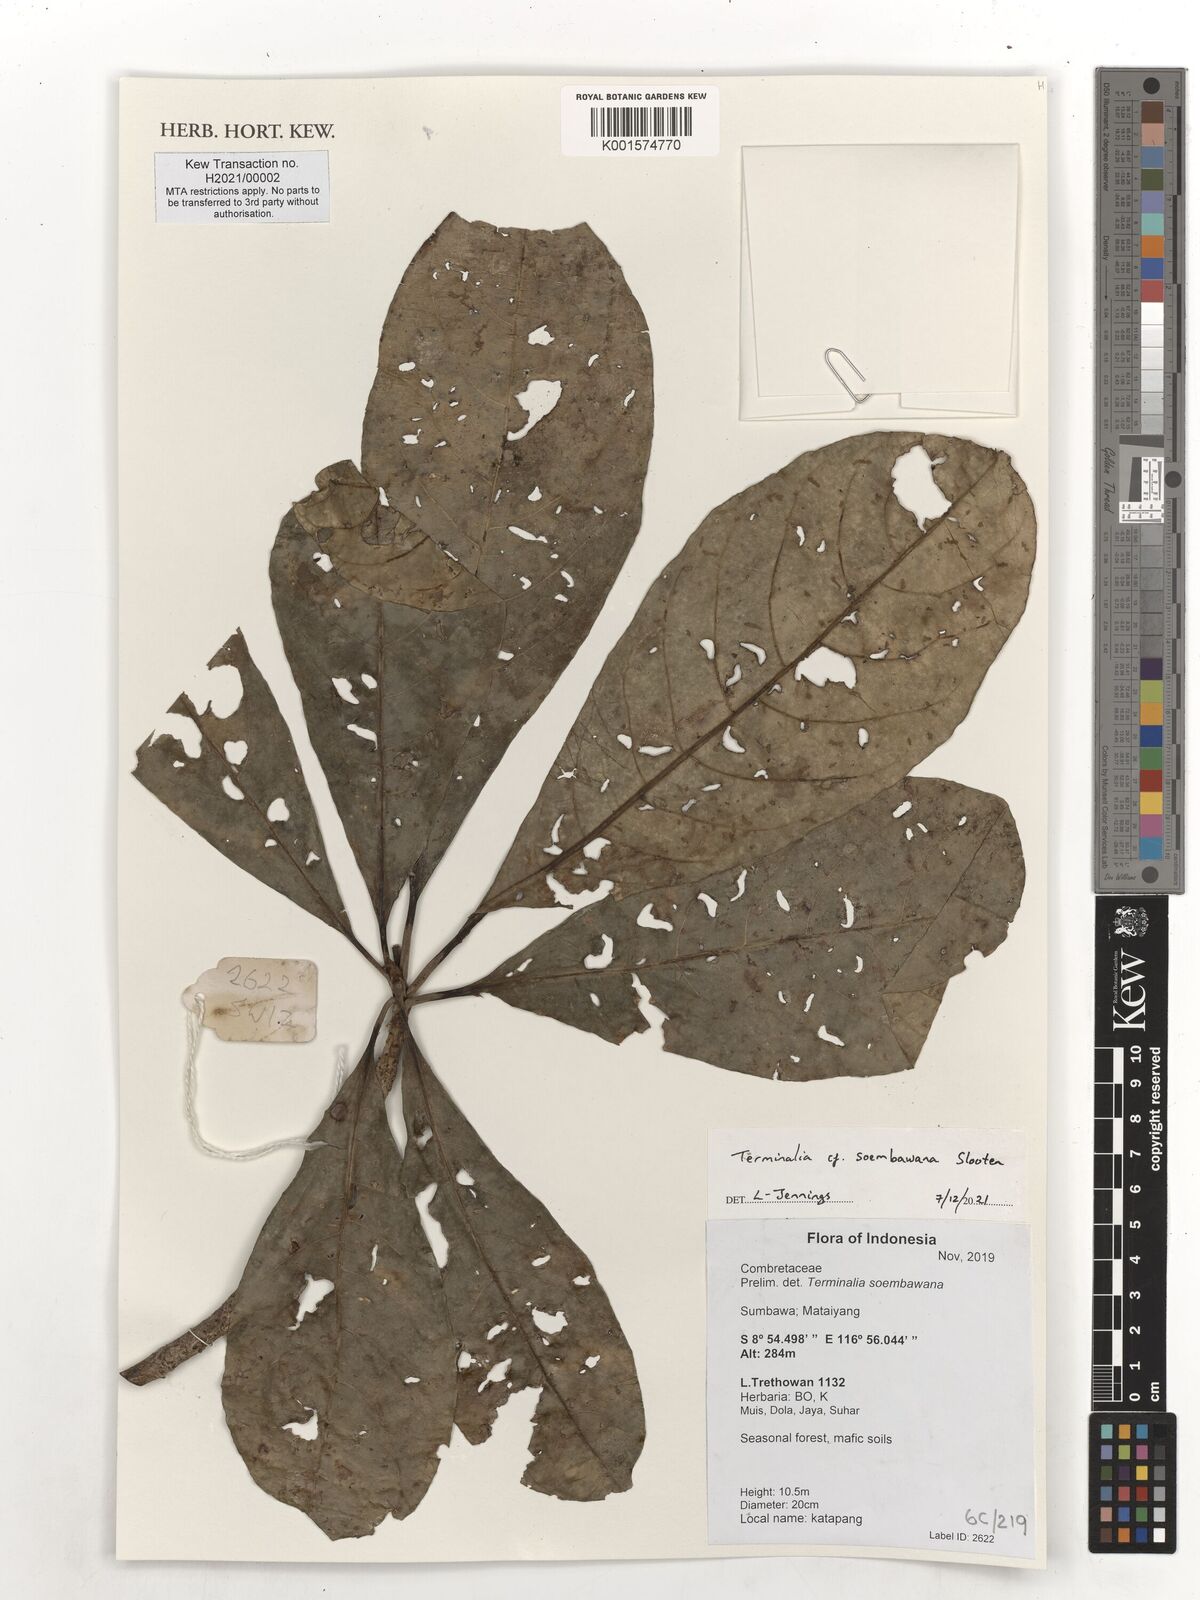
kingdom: Plantae
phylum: Tracheophyta
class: Magnoliopsida
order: Myrtales
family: Combretaceae
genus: Terminalia
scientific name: Terminalia soembawana
